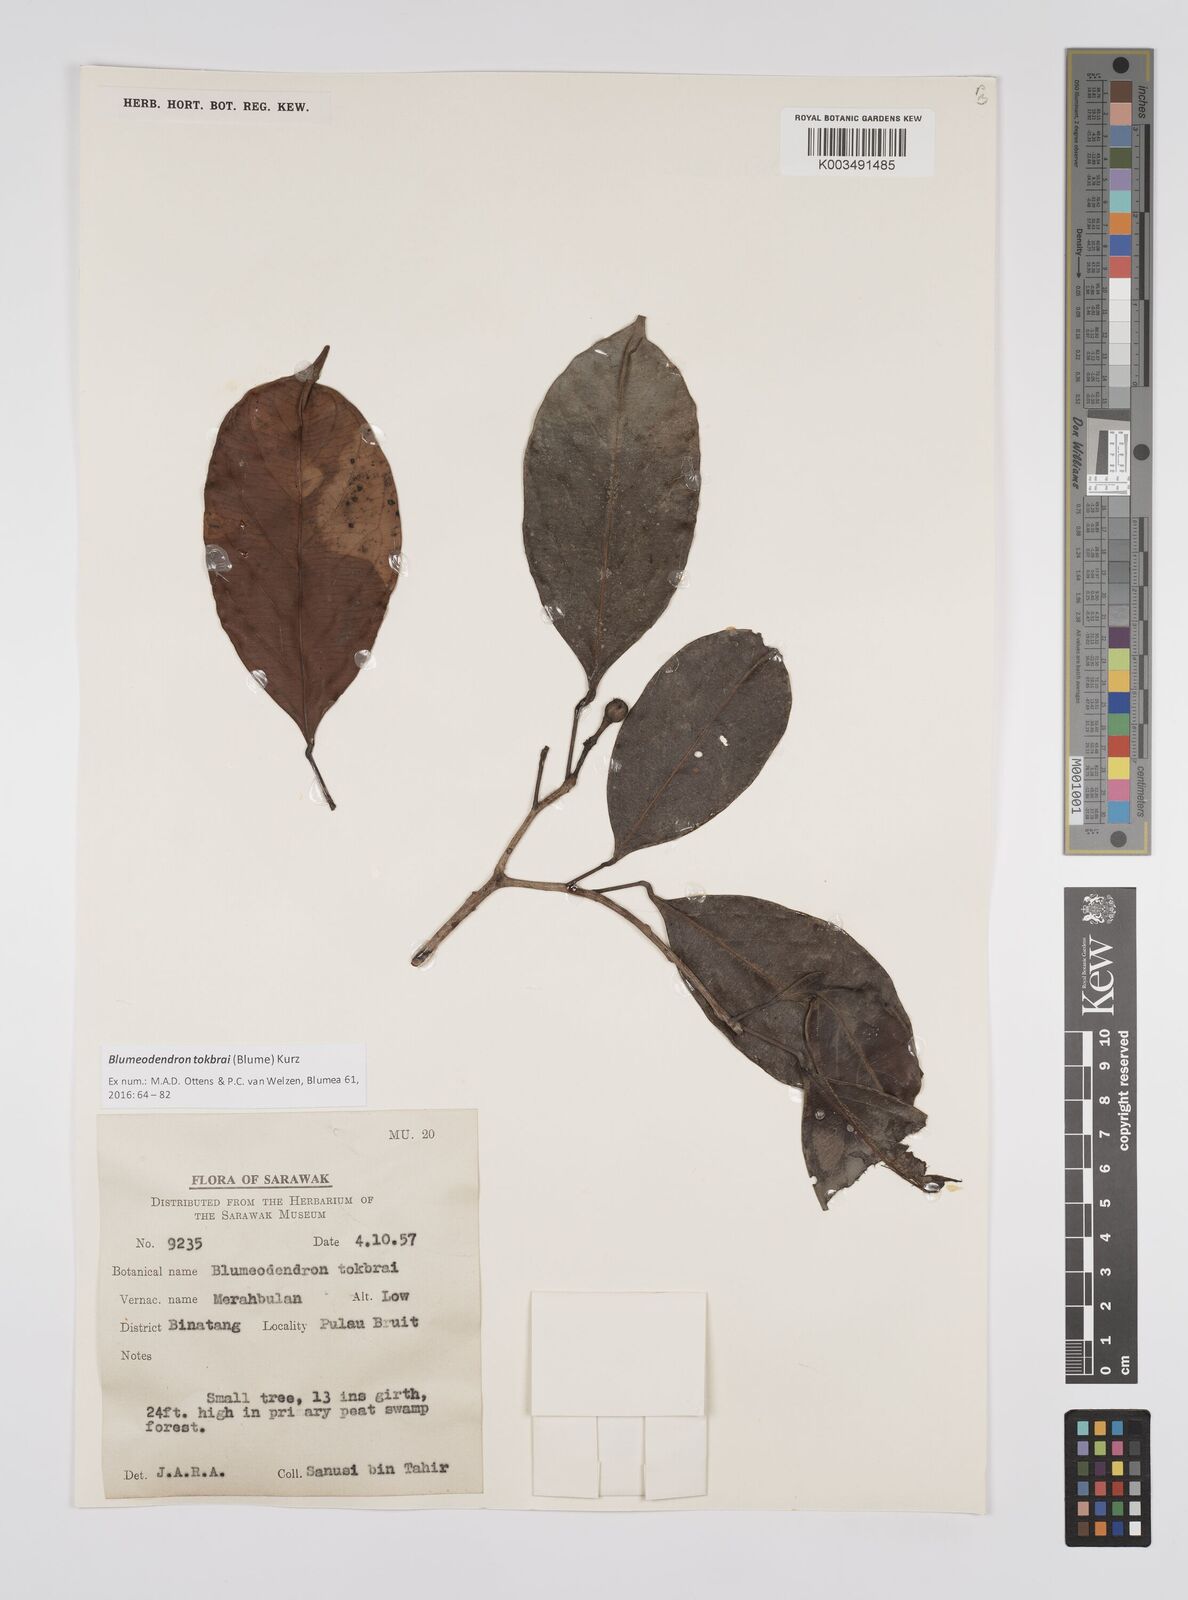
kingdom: Plantae
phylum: Tracheophyta
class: Magnoliopsida
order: Malpighiales
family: Euphorbiaceae
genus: Blumeodendron
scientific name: Blumeodendron tokbrai
